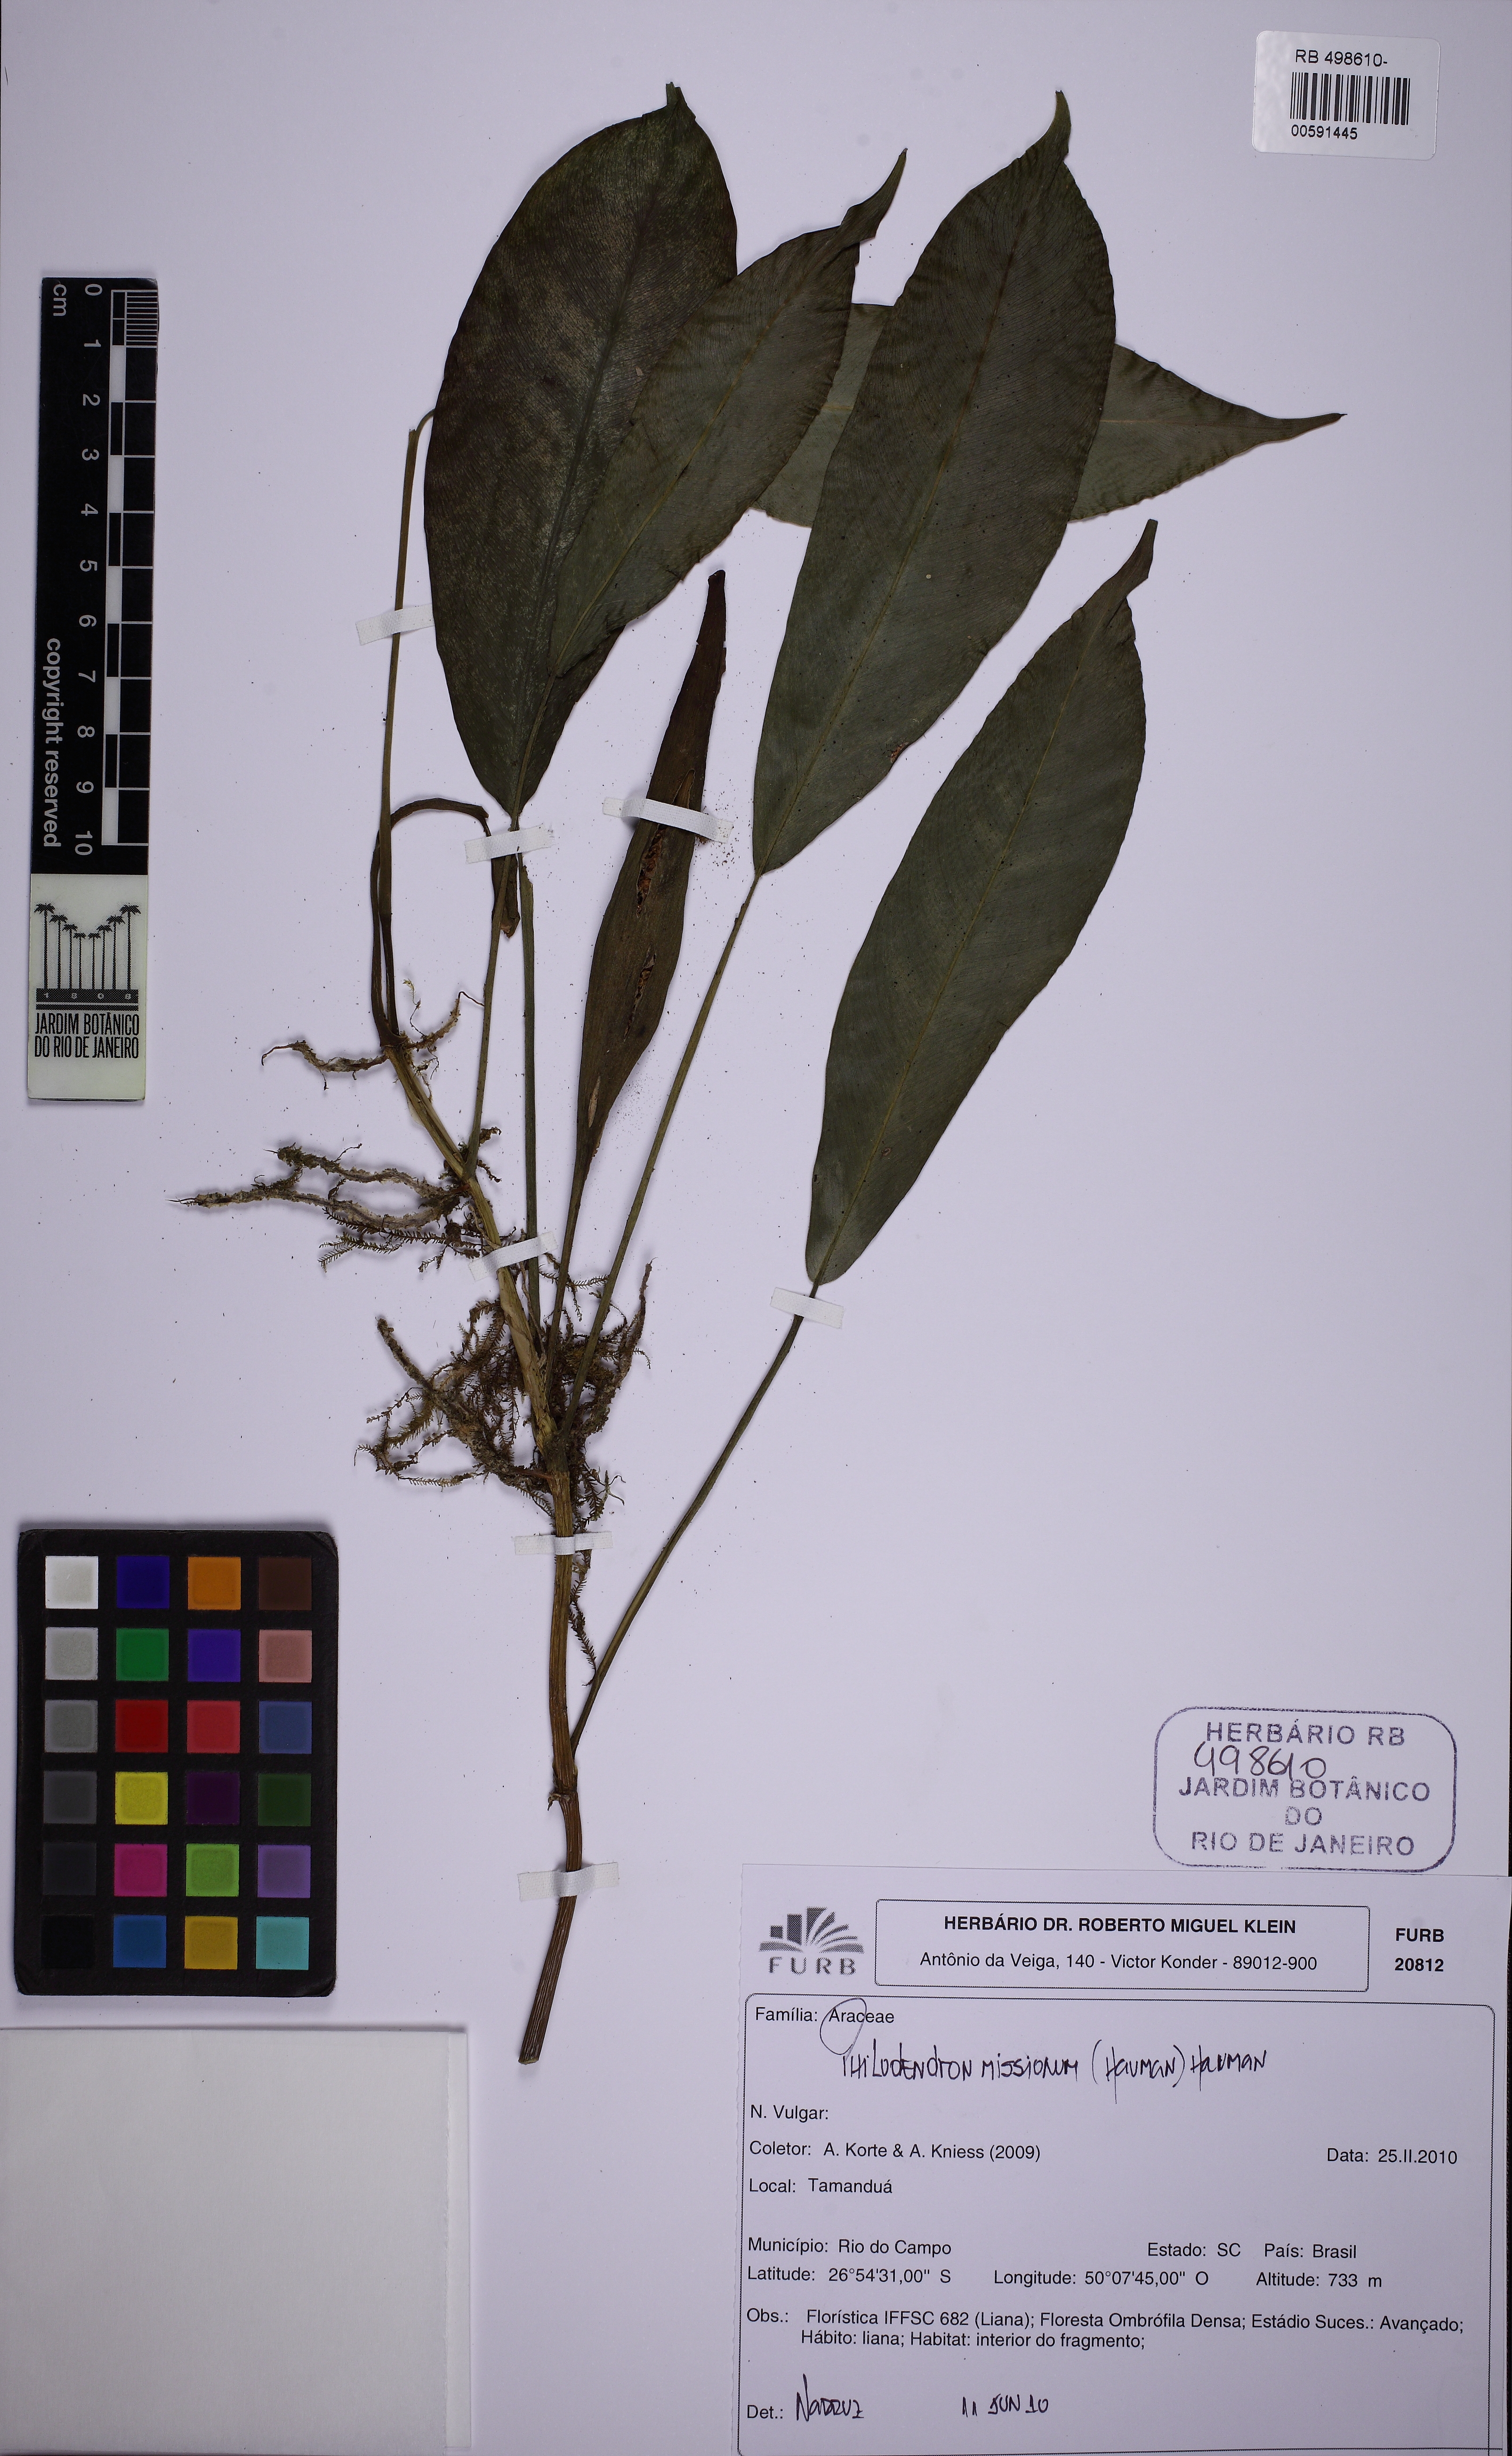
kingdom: Plantae
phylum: Tracheophyta
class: Liliopsida
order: Alismatales
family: Araceae
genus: Philodendron
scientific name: Philodendron missionum
